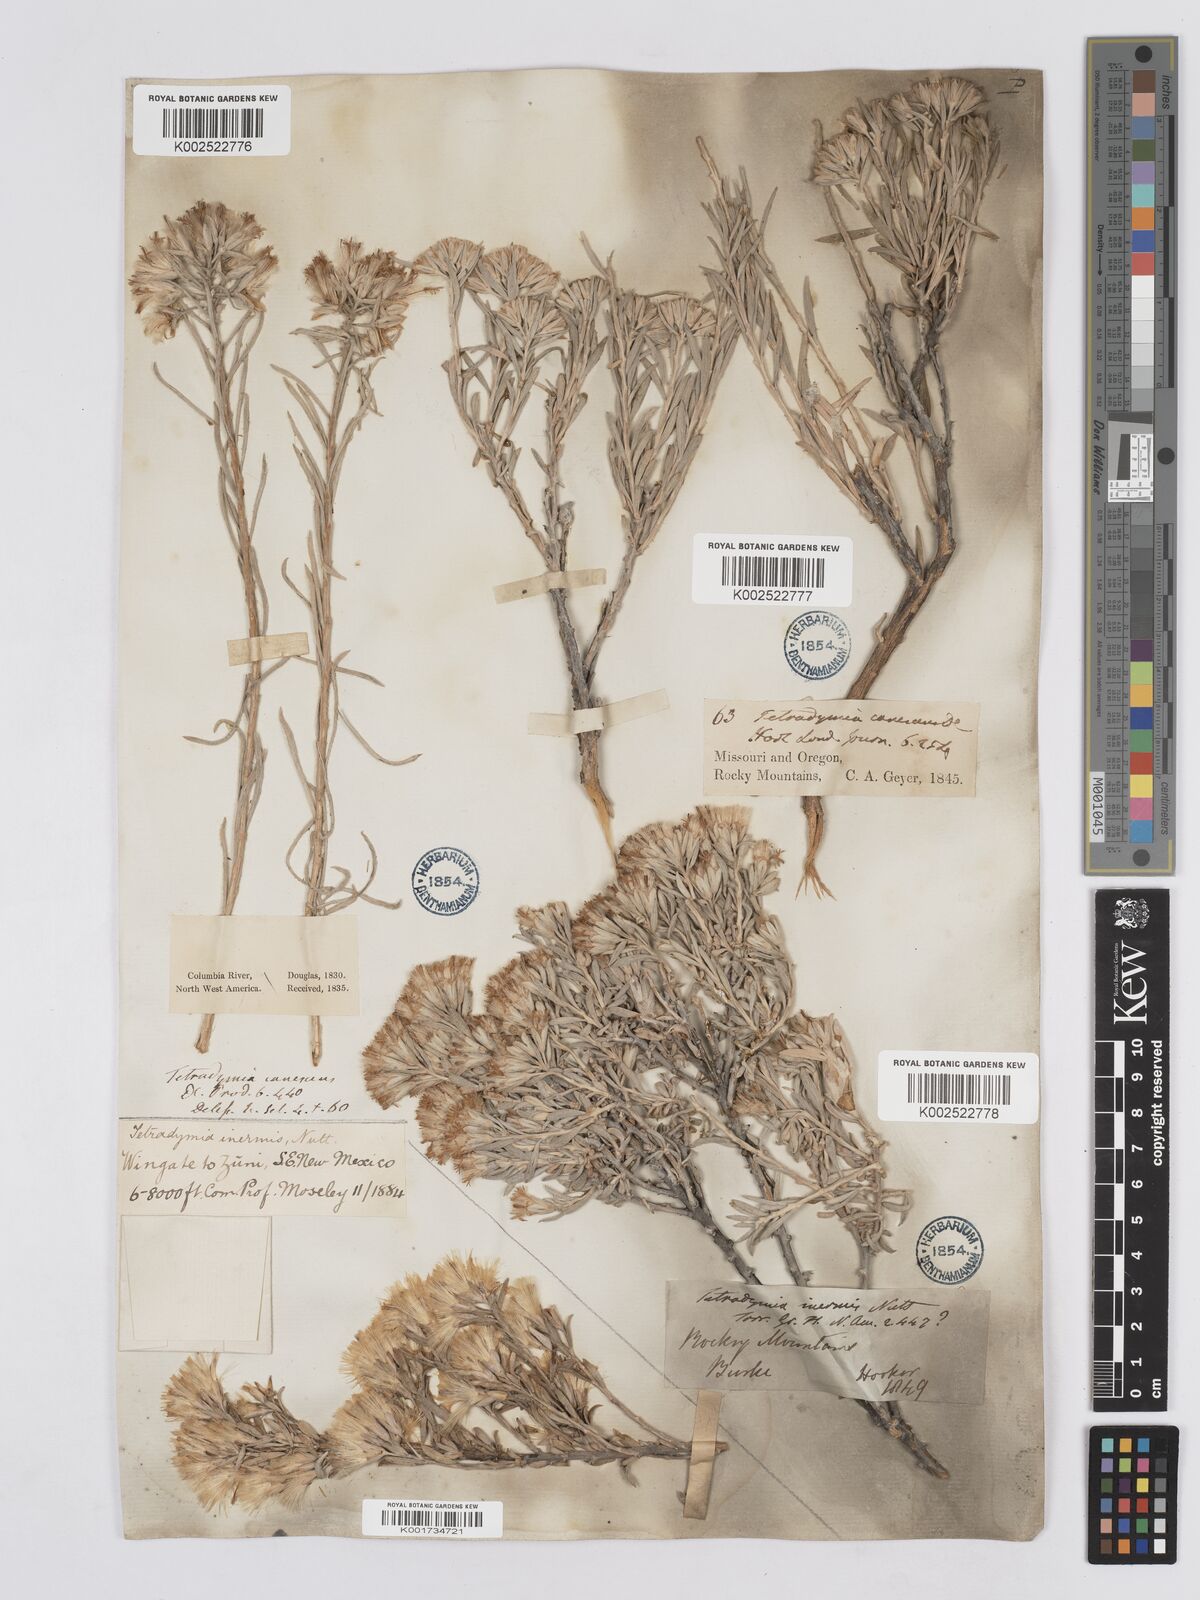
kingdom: Plantae
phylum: Tracheophyta
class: Magnoliopsida
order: Asterales
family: Asteraceae
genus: Tetradymia
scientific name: Tetradymia canescens
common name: Spineless horsebrush
